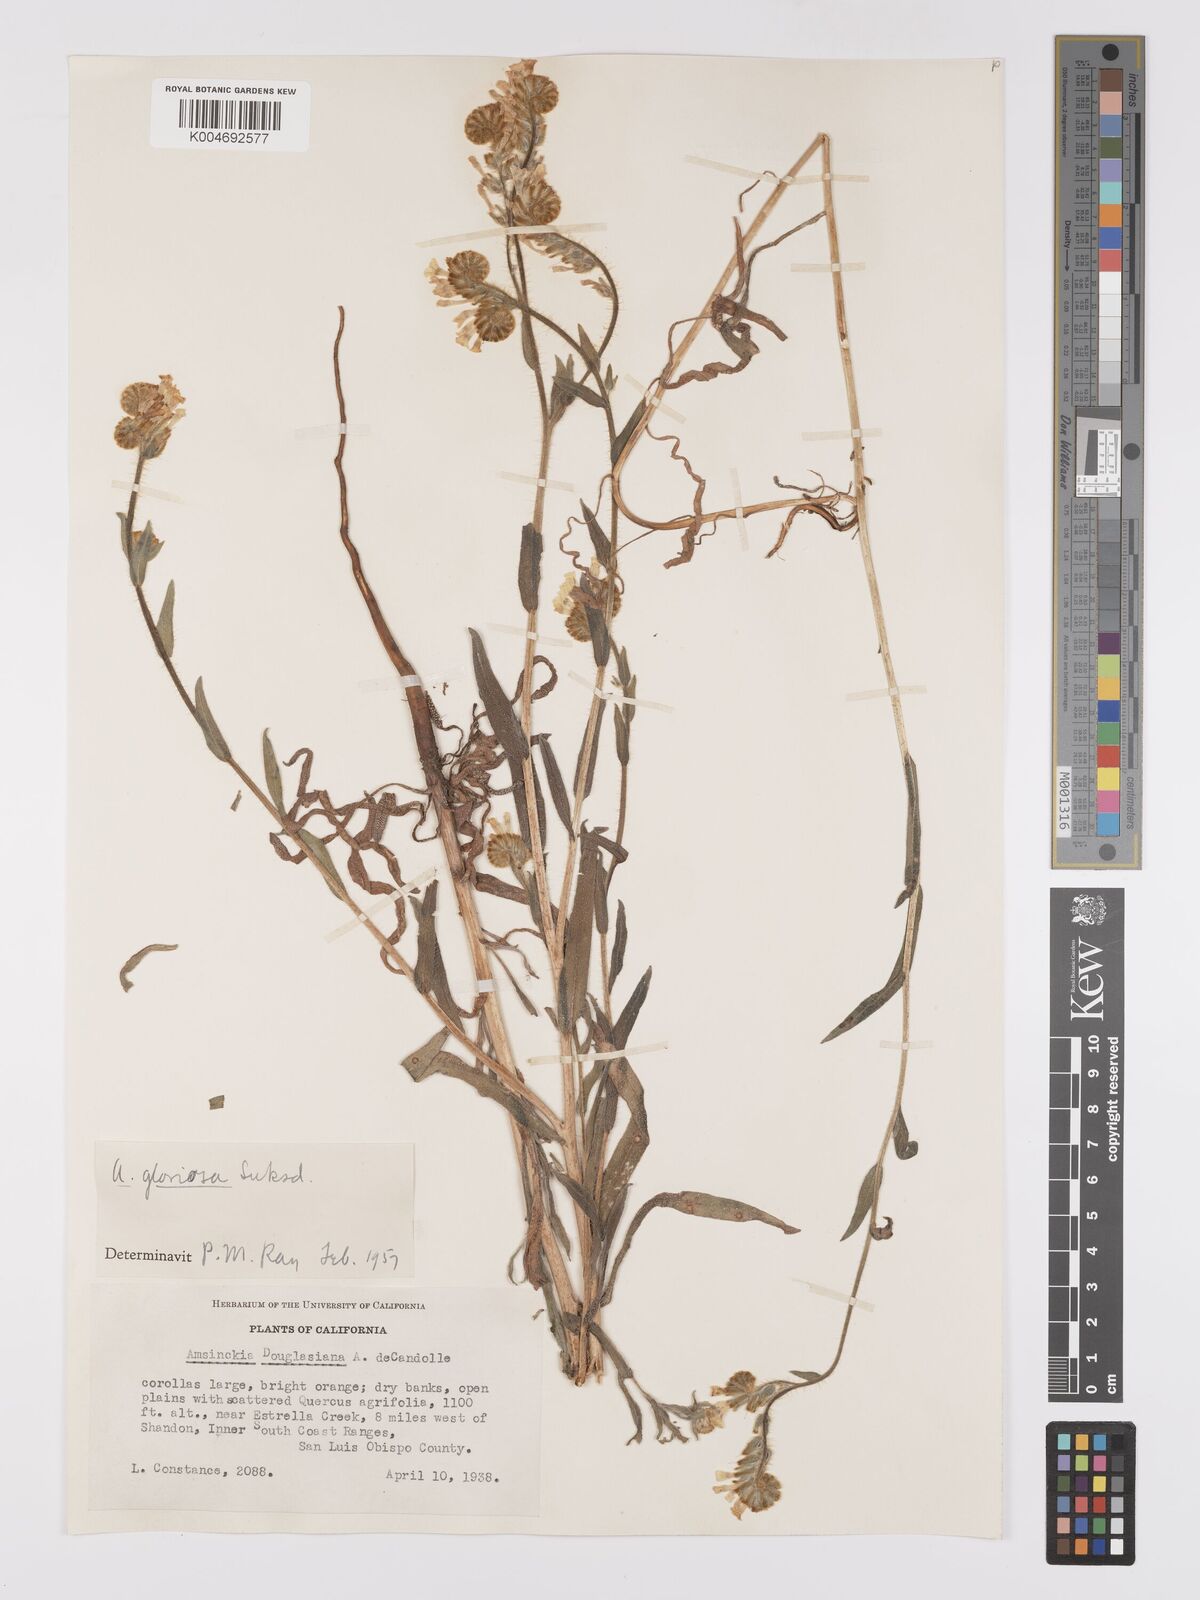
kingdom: Plantae
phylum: Tracheophyta
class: Magnoliopsida
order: Boraginales
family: Boraginaceae
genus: Amsinckia
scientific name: Amsinckia tessellata
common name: Tessellate fiddleneck
